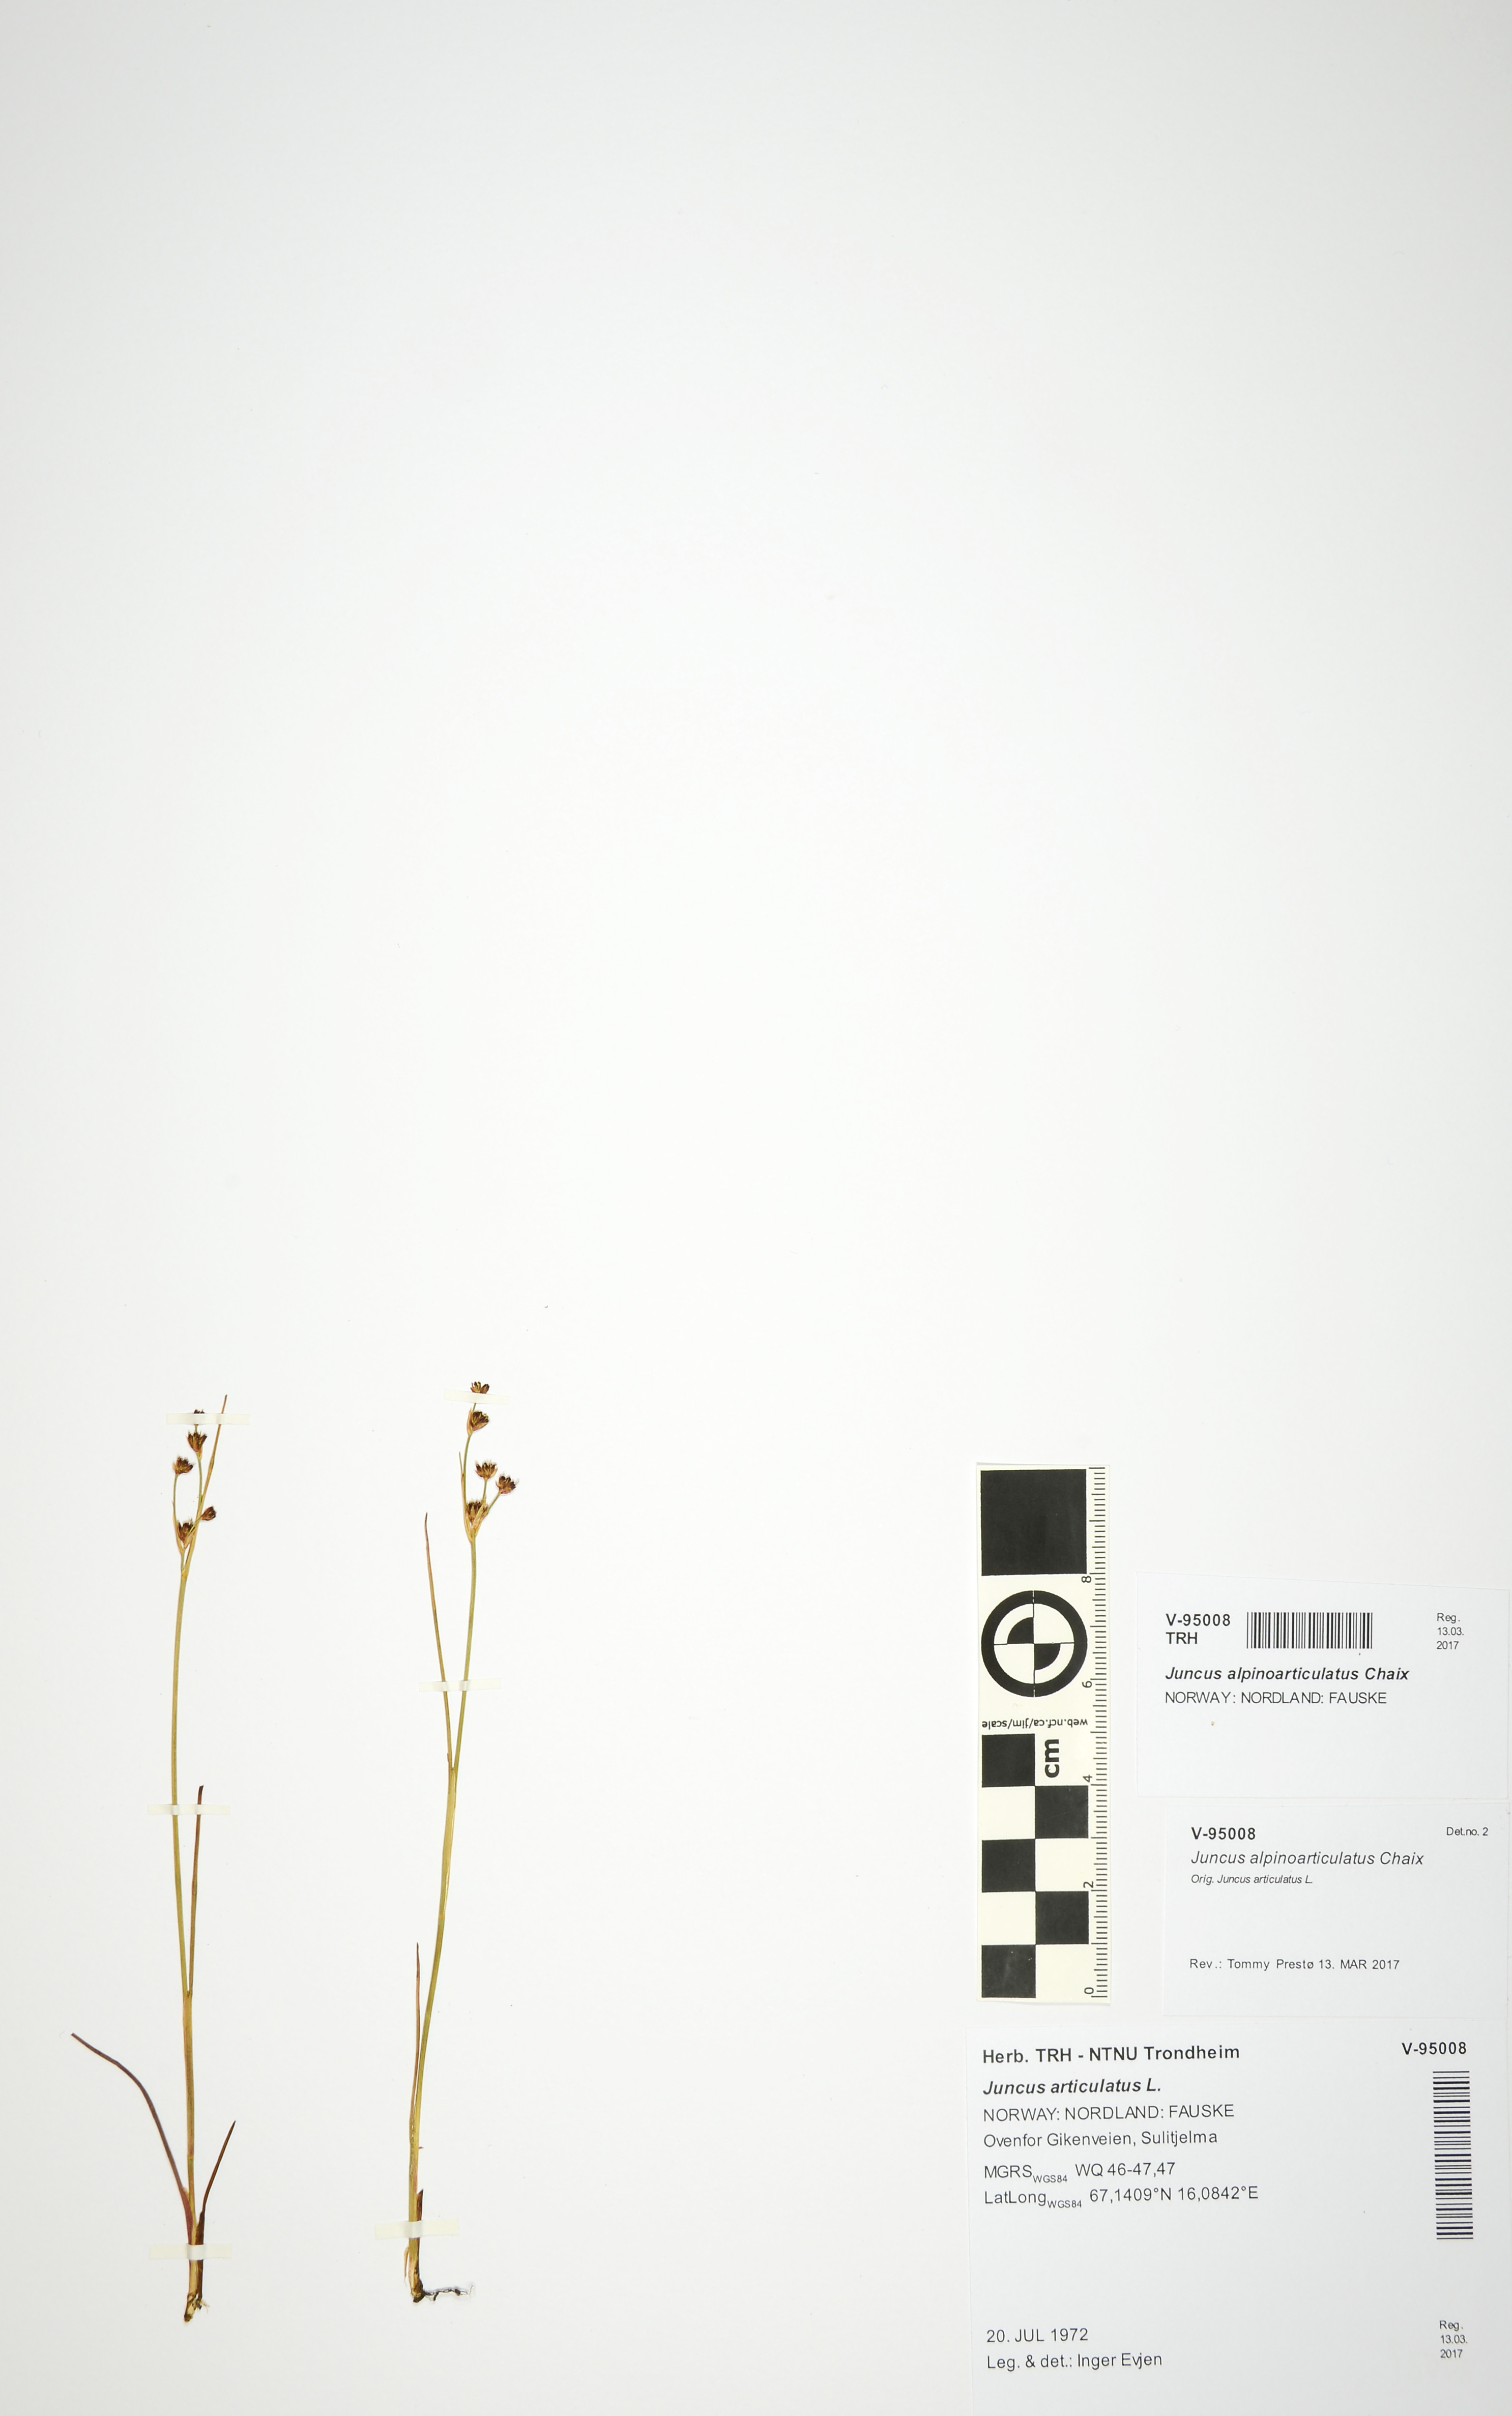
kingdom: Plantae
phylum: Tracheophyta
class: Liliopsida
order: Poales
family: Juncaceae
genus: Juncus
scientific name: Juncus alpinoarticulatus
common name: Alpine rush
